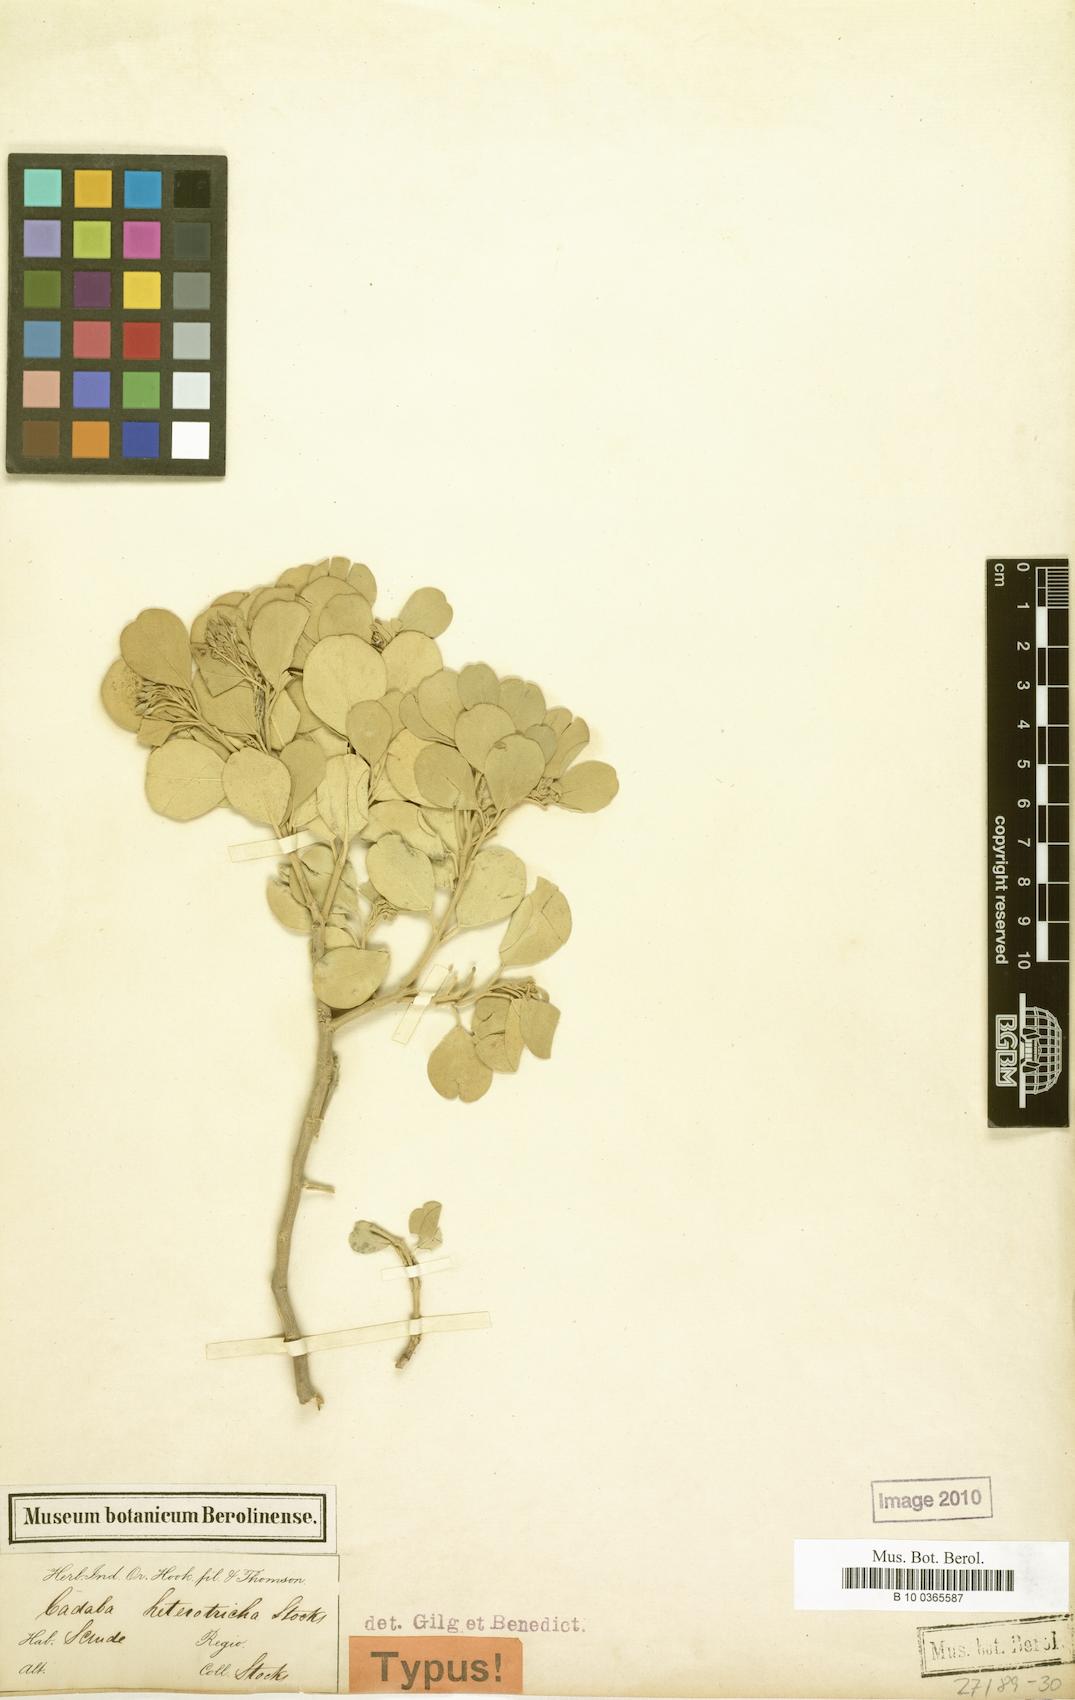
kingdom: Plantae
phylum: Tracheophyta
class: Magnoliopsida
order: Brassicales
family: Capparaceae
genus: Cadaba
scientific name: Cadaba linearifolia
